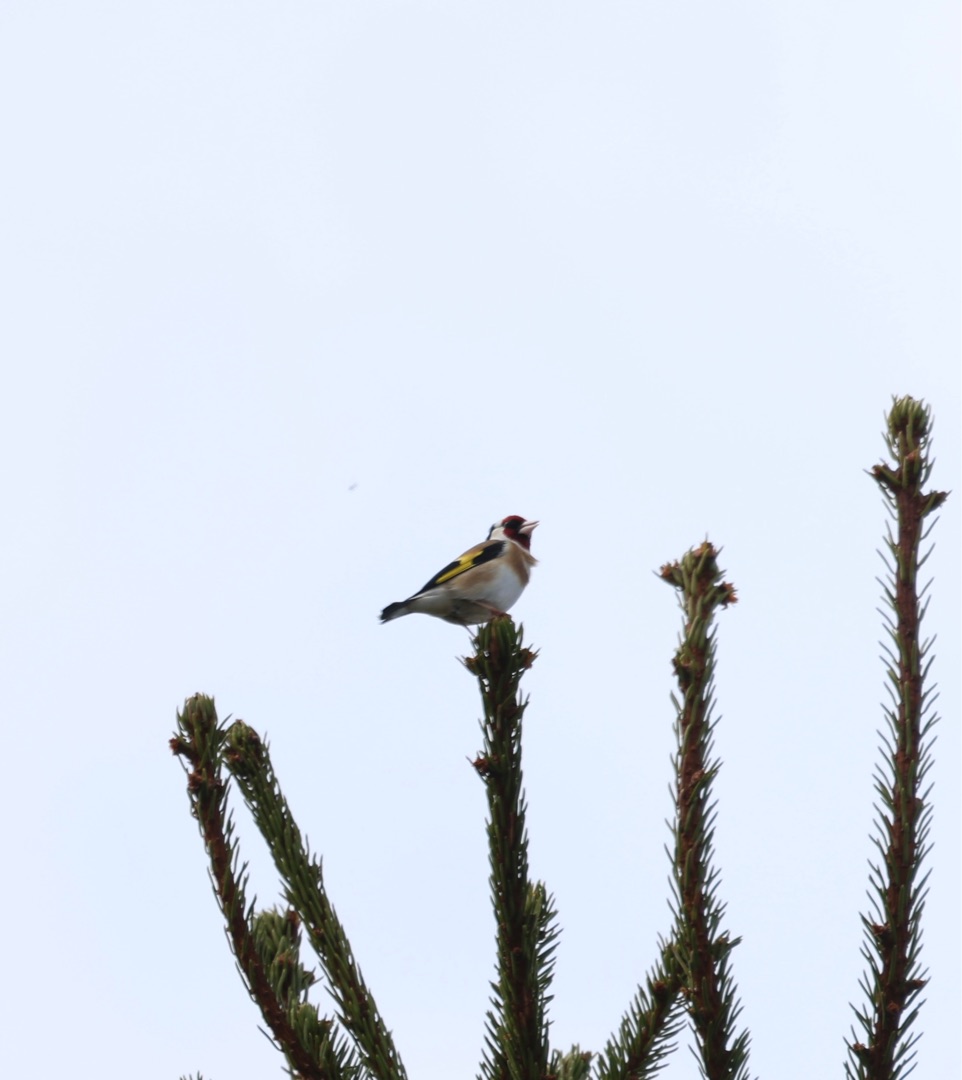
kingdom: Animalia
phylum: Chordata
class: Aves
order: Passeriformes
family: Fringillidae
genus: Carduelis
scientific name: Carduelis carduelis
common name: Stillits
